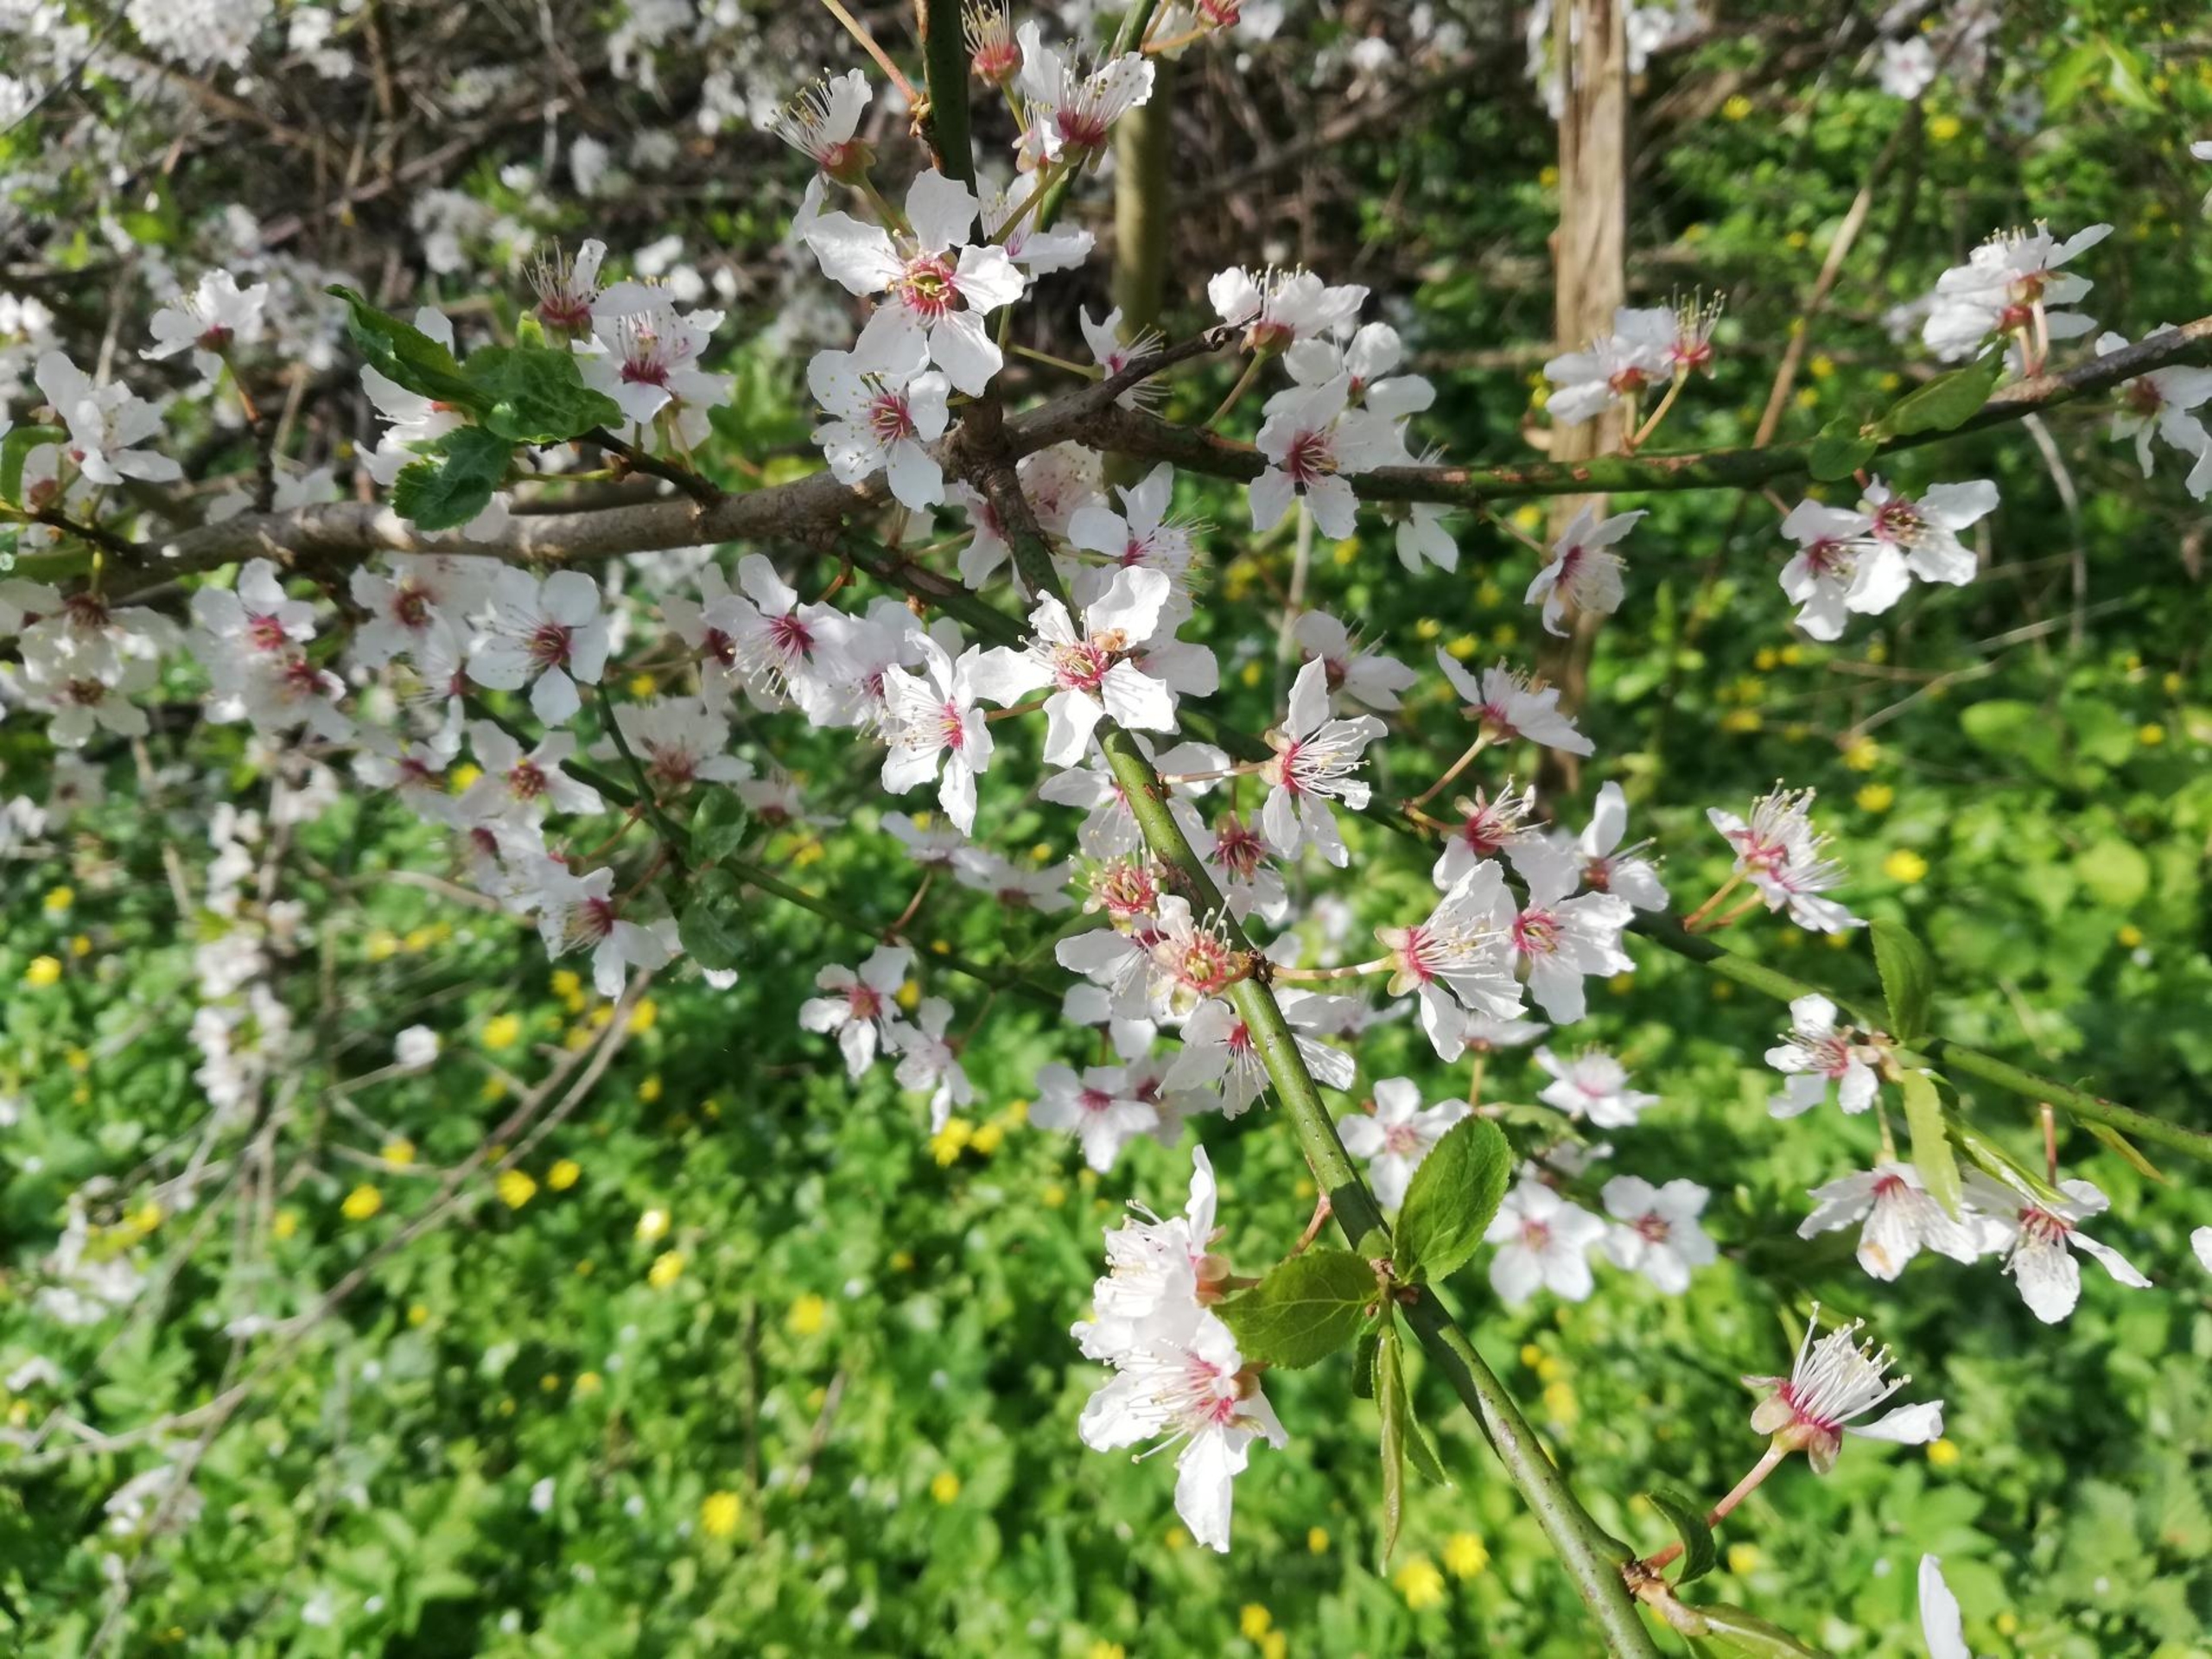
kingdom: Plantae
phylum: Tracheophyta
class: Magnoliopsida
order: Rosales
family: Rosaceae
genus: Prunus
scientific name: Prunus cerasifera
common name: Mirabel
